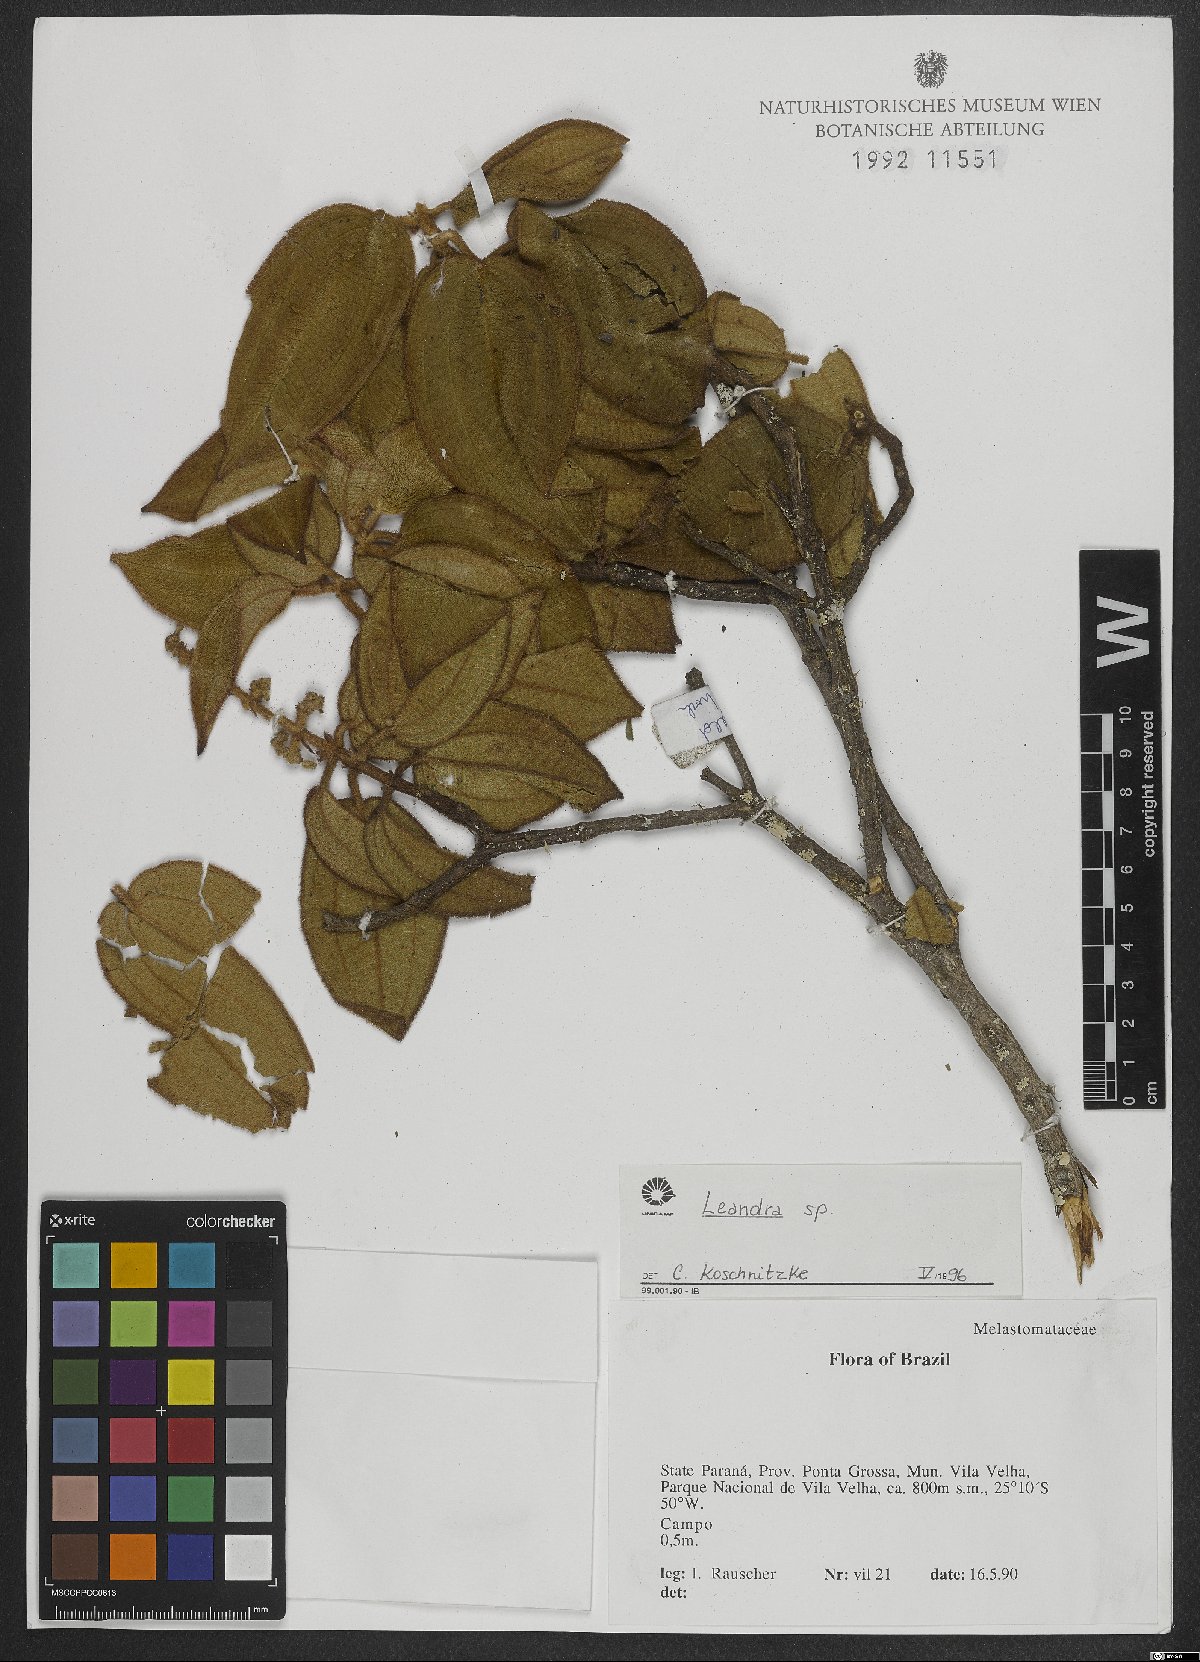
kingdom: Plantae
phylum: Tracheophyta
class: Magnoliopsida
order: Myrtales
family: Melastomataceae
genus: Miconia
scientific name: Miconia
